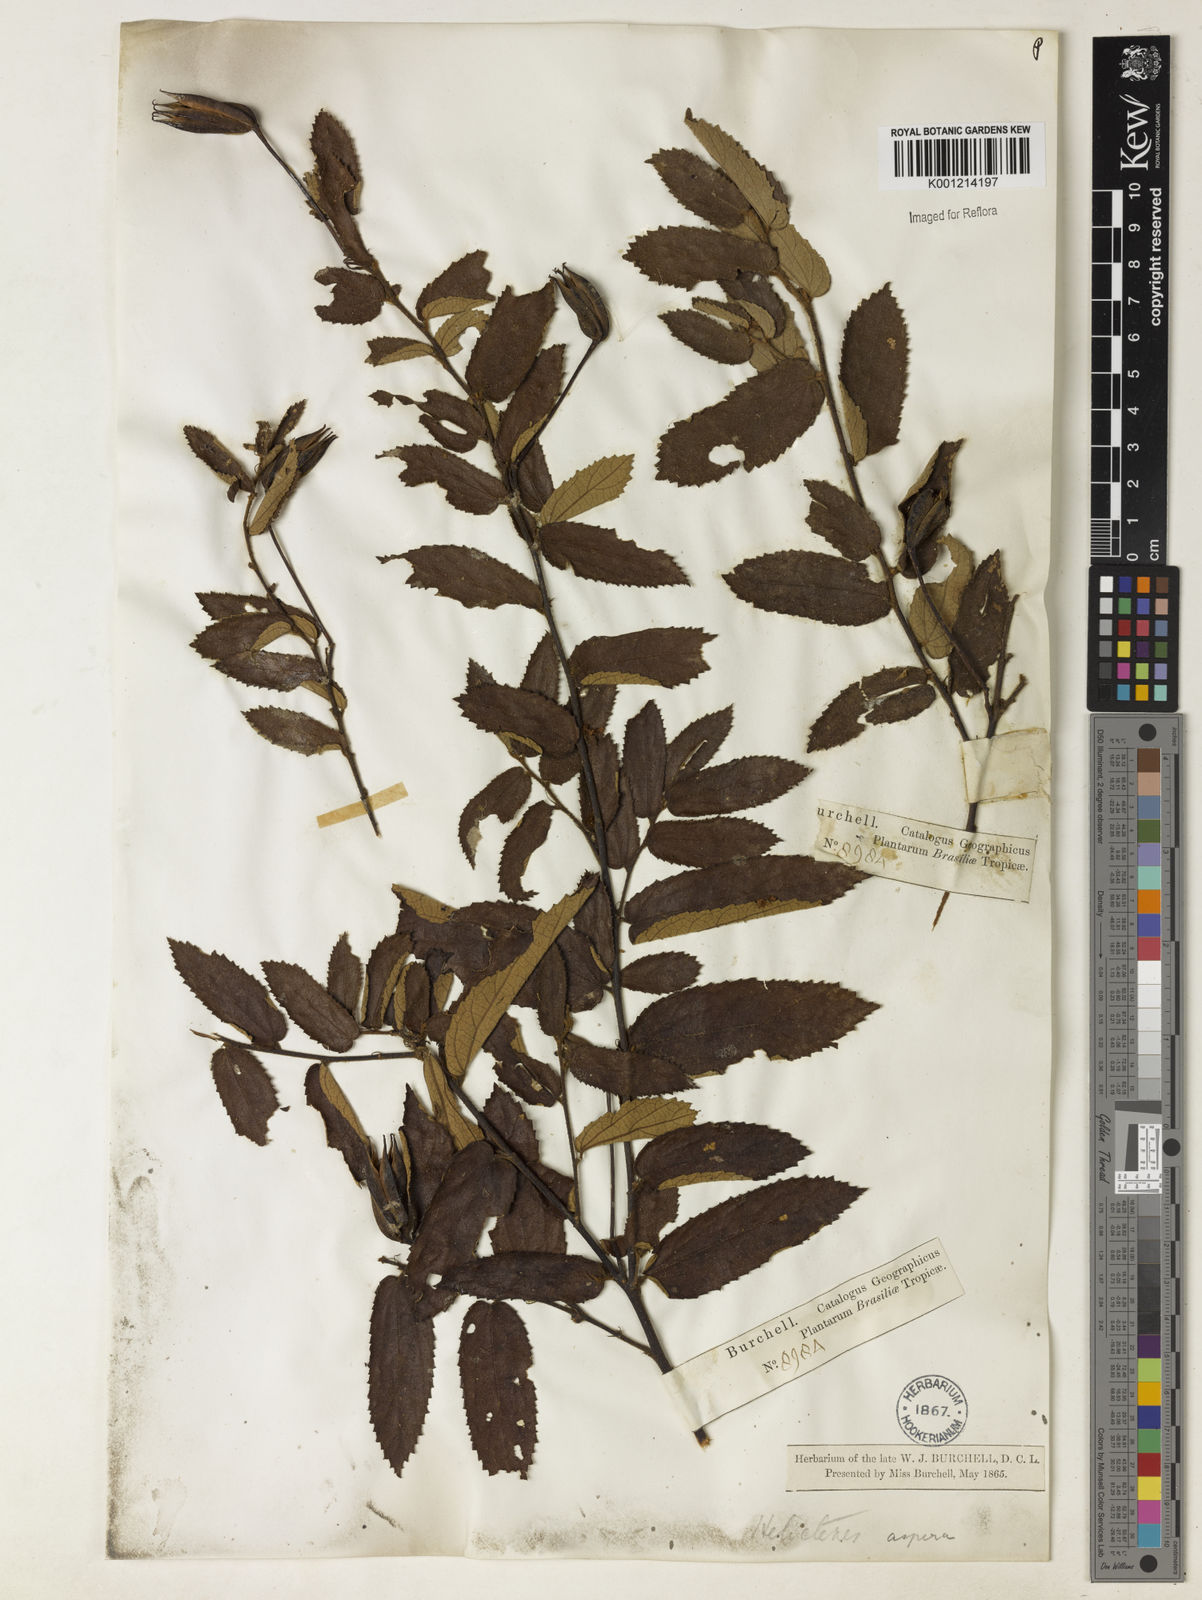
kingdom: Plantae
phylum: Tracheophyta
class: Magnoliopsida
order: Malvales
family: Malvaceae
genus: Helicteres
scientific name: Helicteres aspera
